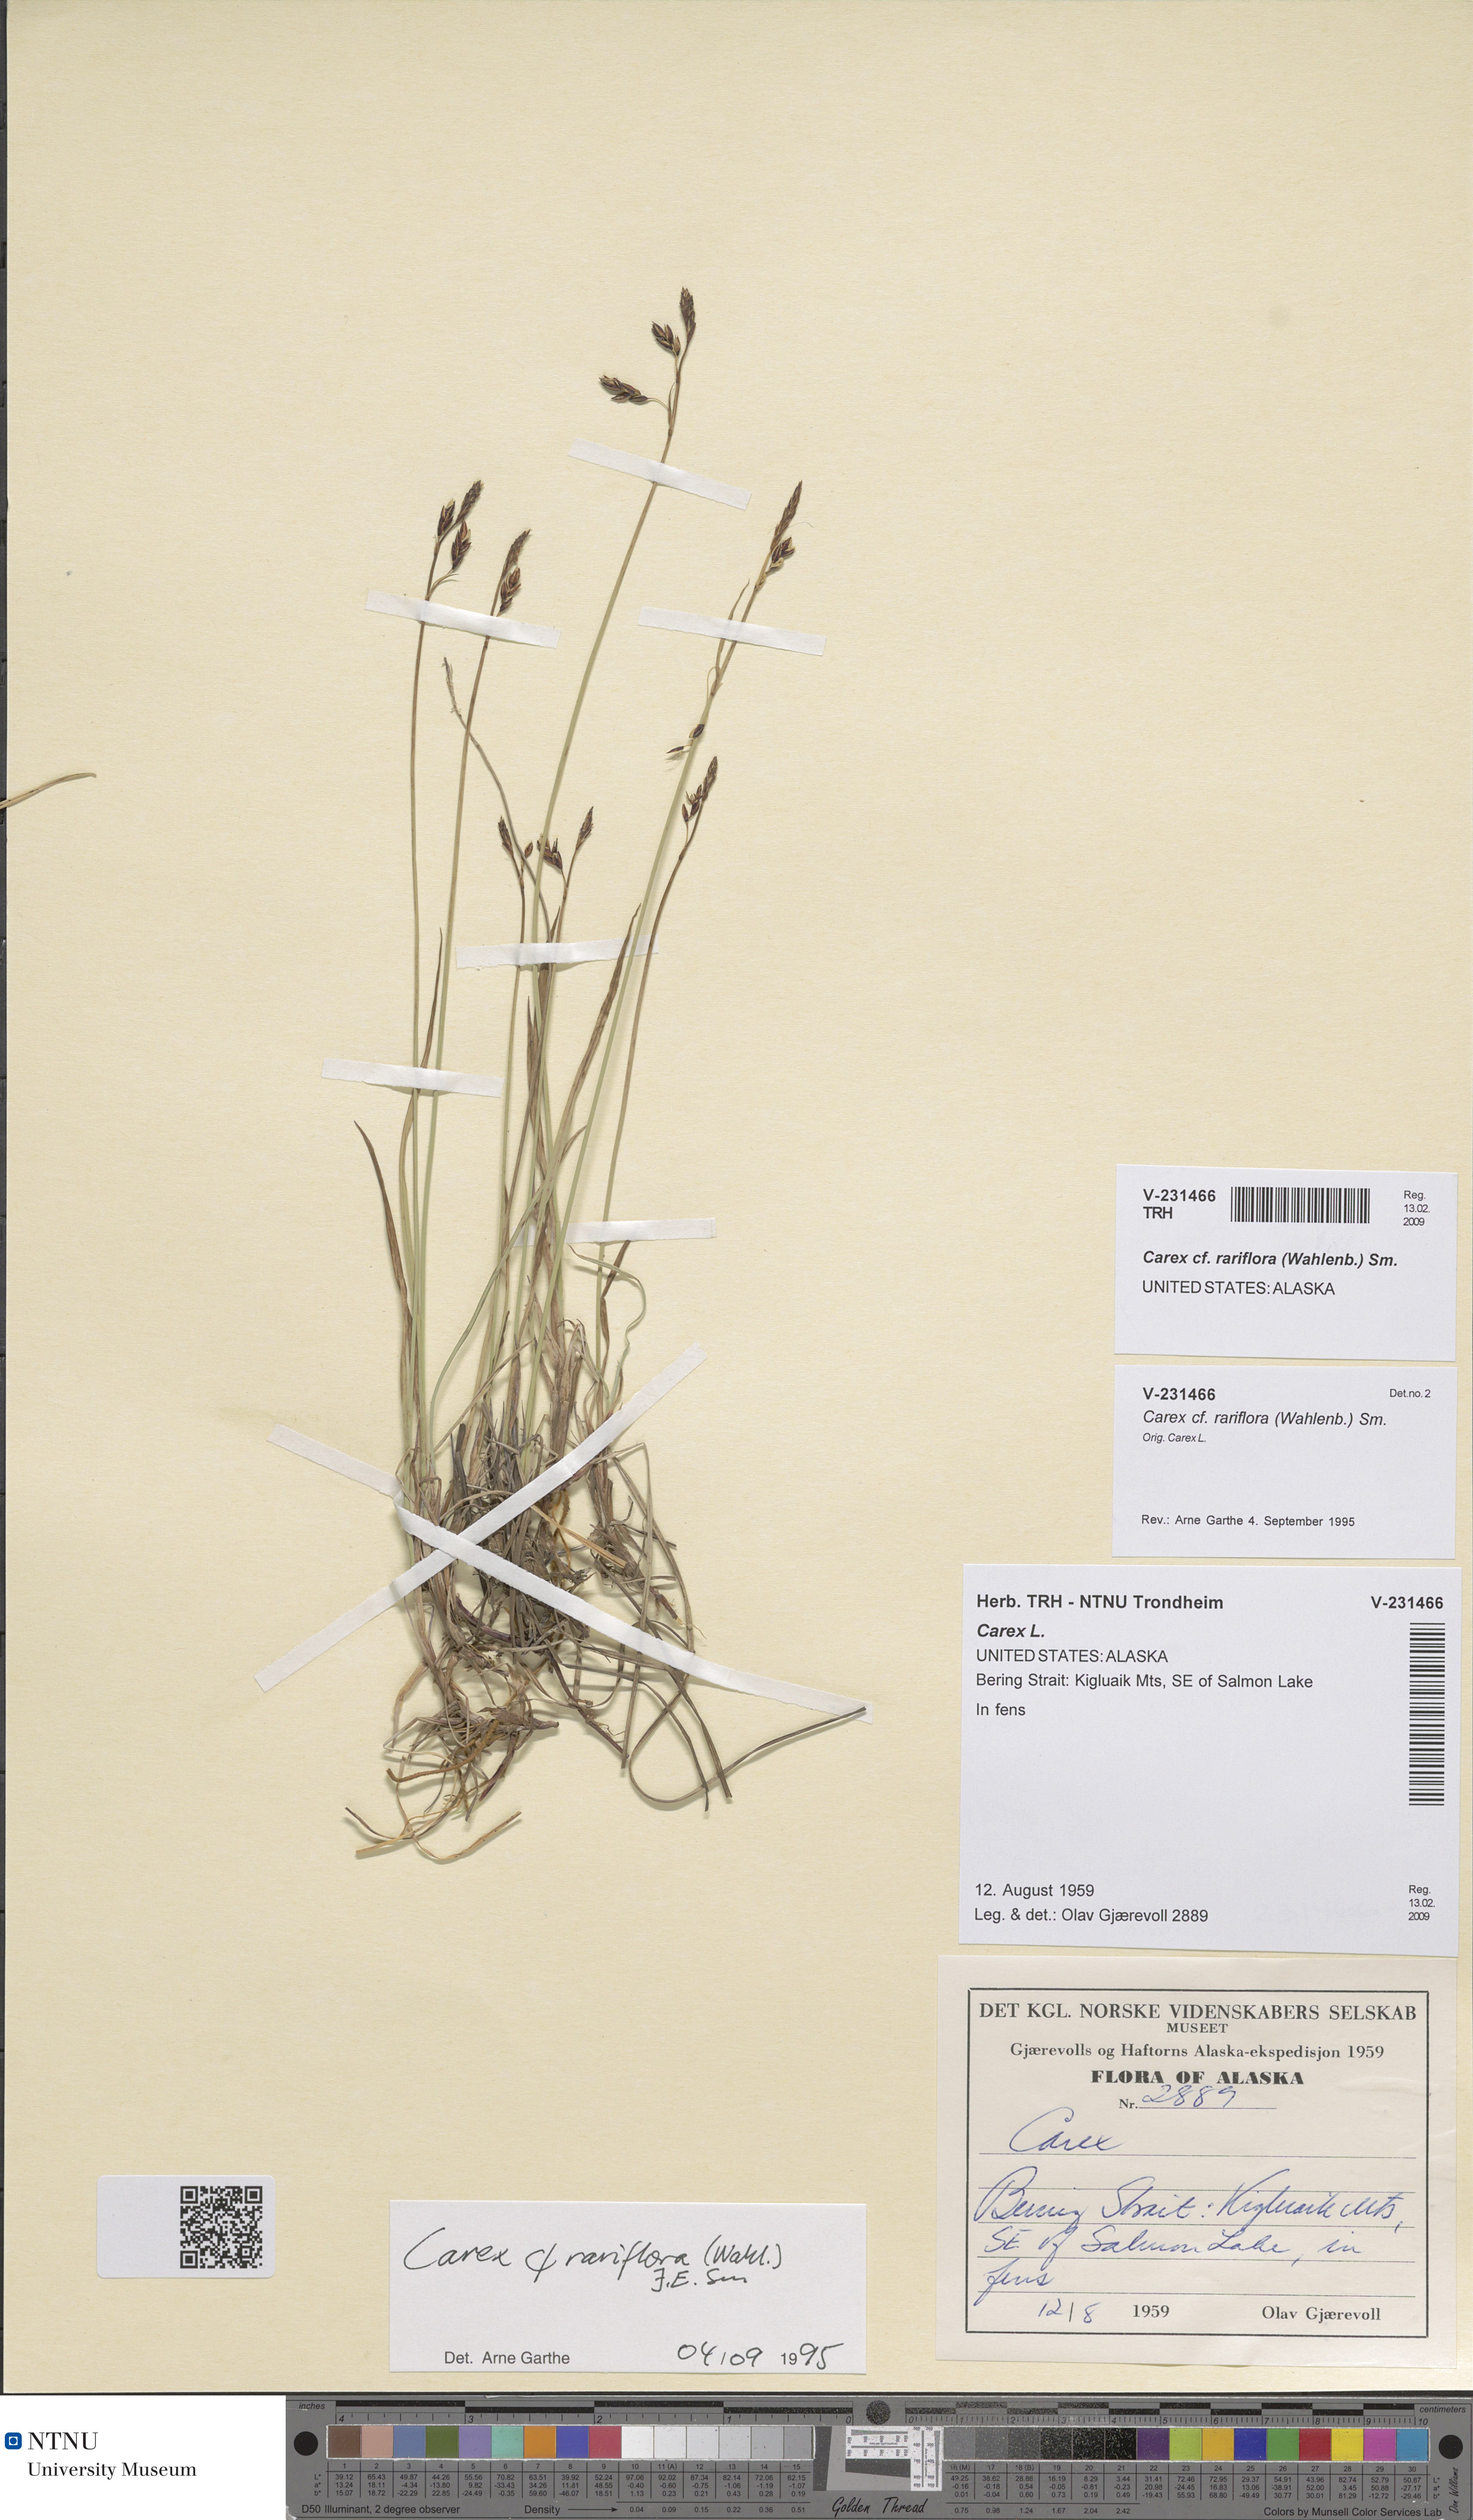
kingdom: Plantae
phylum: Tracheophyta
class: Liliopsida
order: Poales
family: Cyperaceae
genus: Carex
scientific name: Carex rariflora
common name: Loose-flowered alpine sedge
